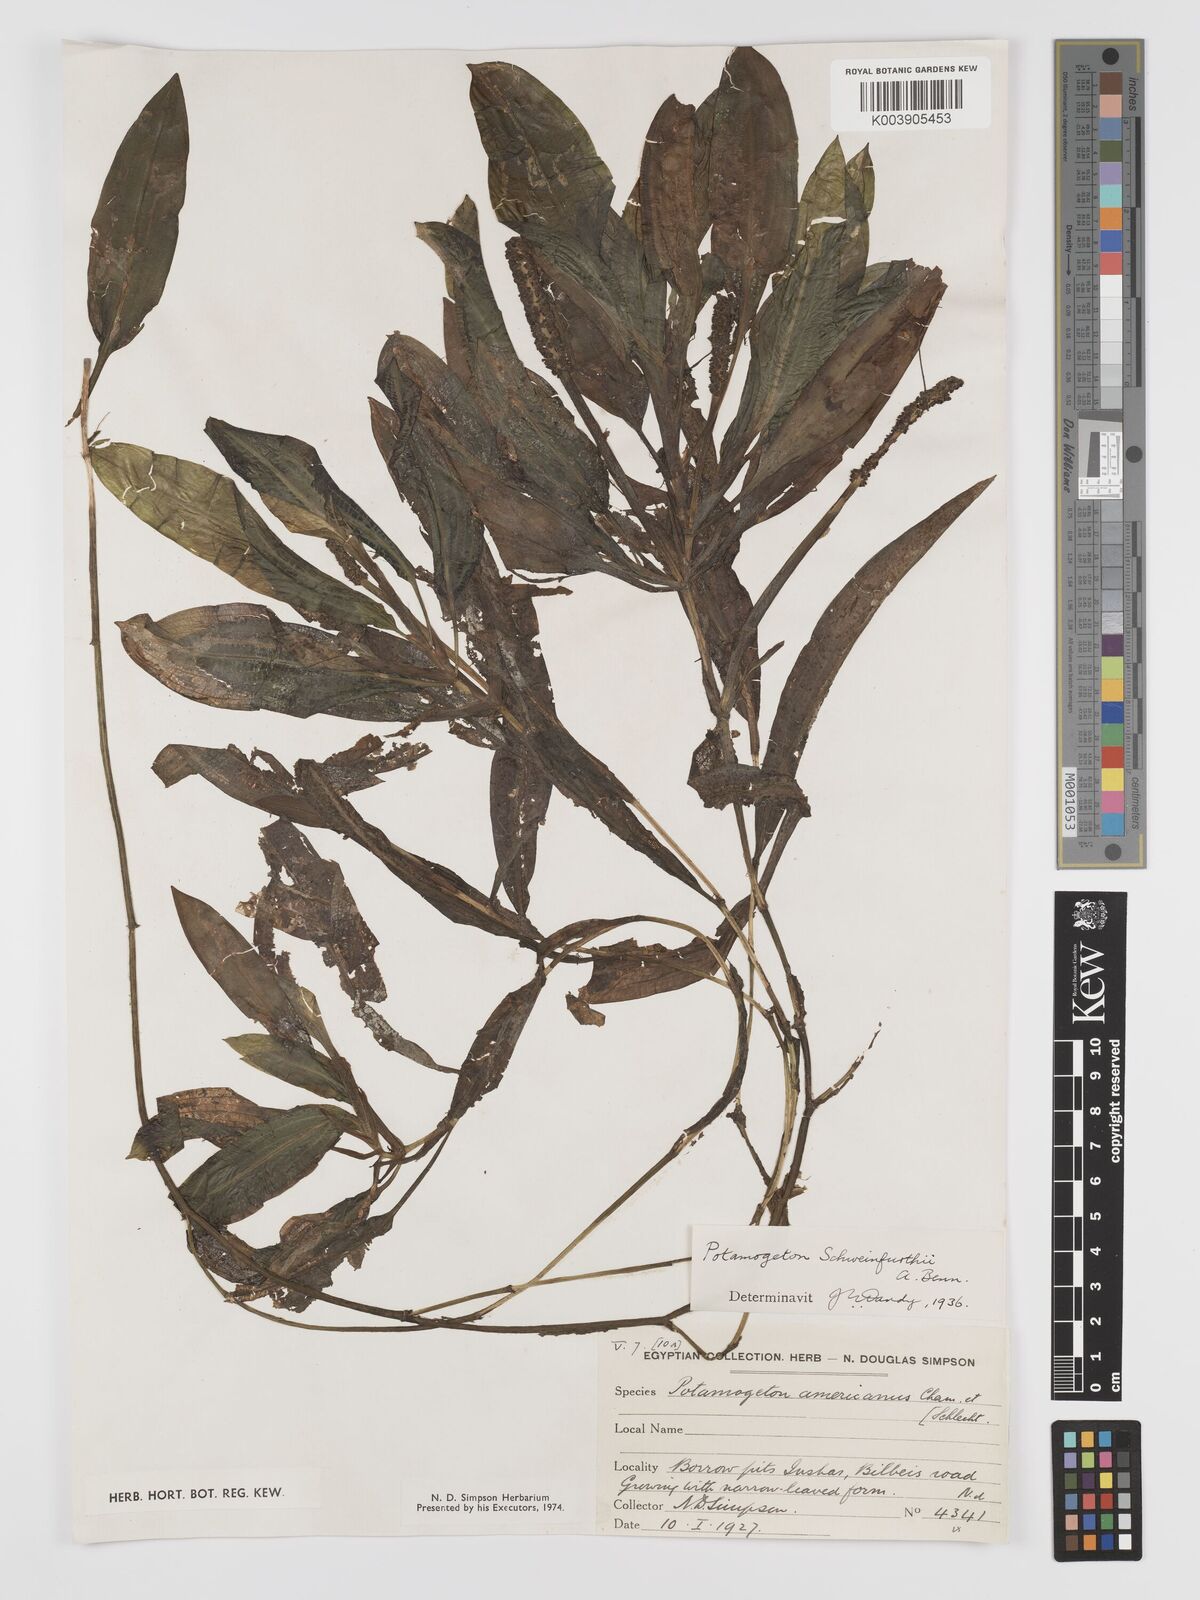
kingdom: Plantae
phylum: Tracheophyta
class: Liliopsida
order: Alismatales
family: Potamogetonaceae
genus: Potamogeton
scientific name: Potamogeton schweinfurthii
